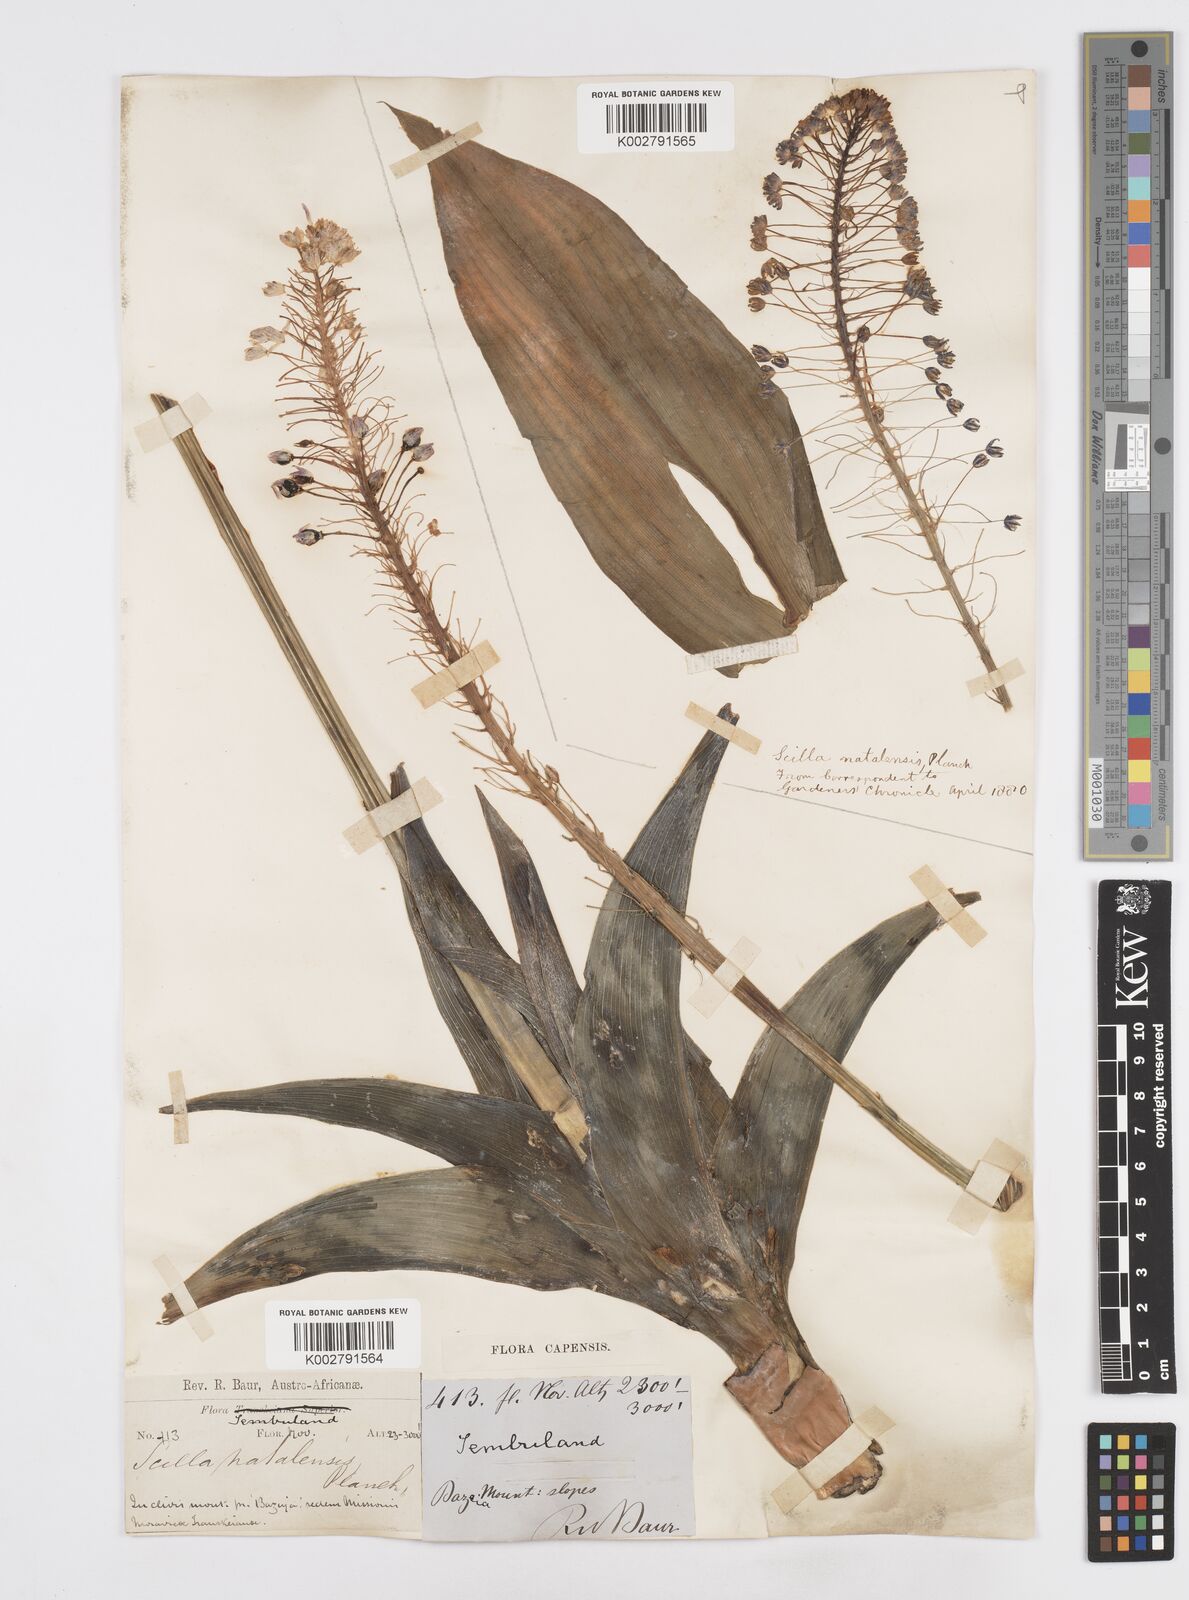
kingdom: Plantae
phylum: Tracheophyta
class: Liliopsida
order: Asparagales
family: Asparagaceae
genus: Merwilla
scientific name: Merwilla plumbea
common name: Blue-squill
